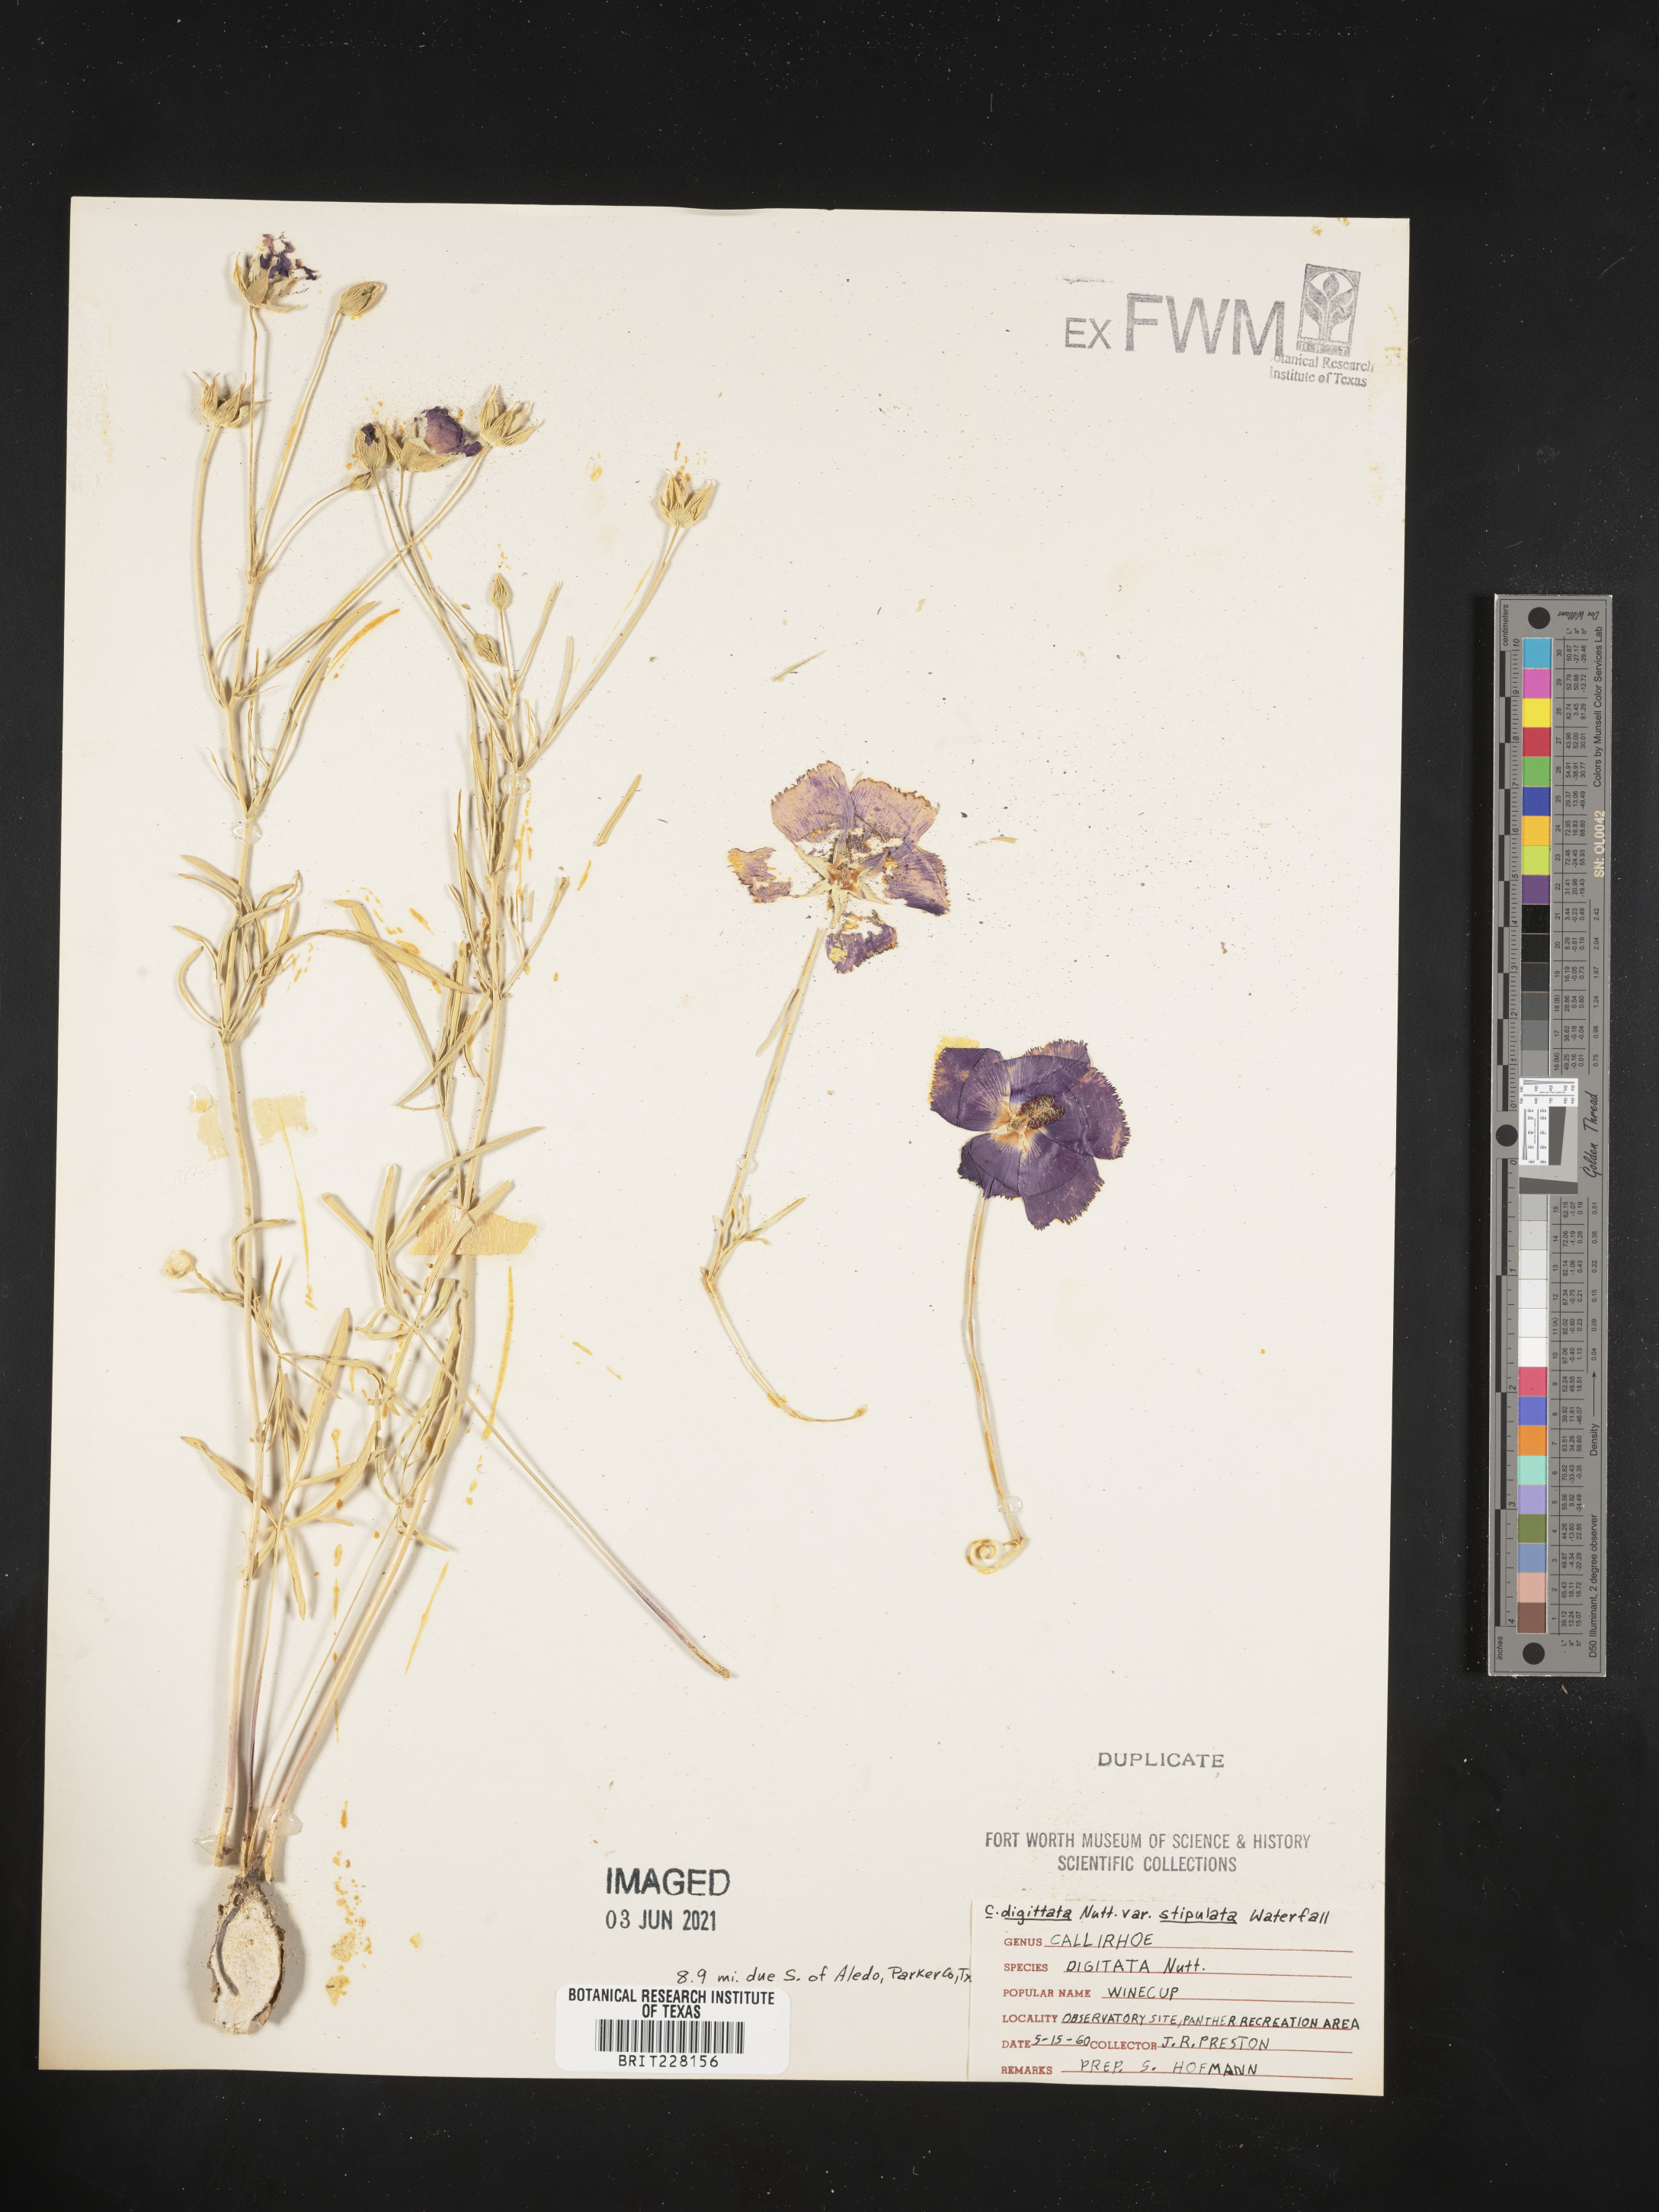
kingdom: Plantae
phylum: Tracheophyta
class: Magnoliopsida
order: Malvales
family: Malvaceae
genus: Callirhoe
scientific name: Callirhoe pedata
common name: Finger poppy-mallow
